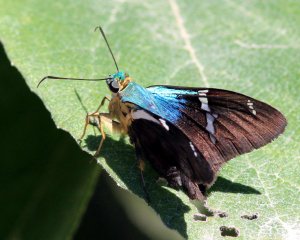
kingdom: Animalia
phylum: Arthropoda
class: Insecta
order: Lepidoptera
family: Hesperiidae
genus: Astraptes
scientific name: Astraptes fulgerator
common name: Two-barred Flasher
